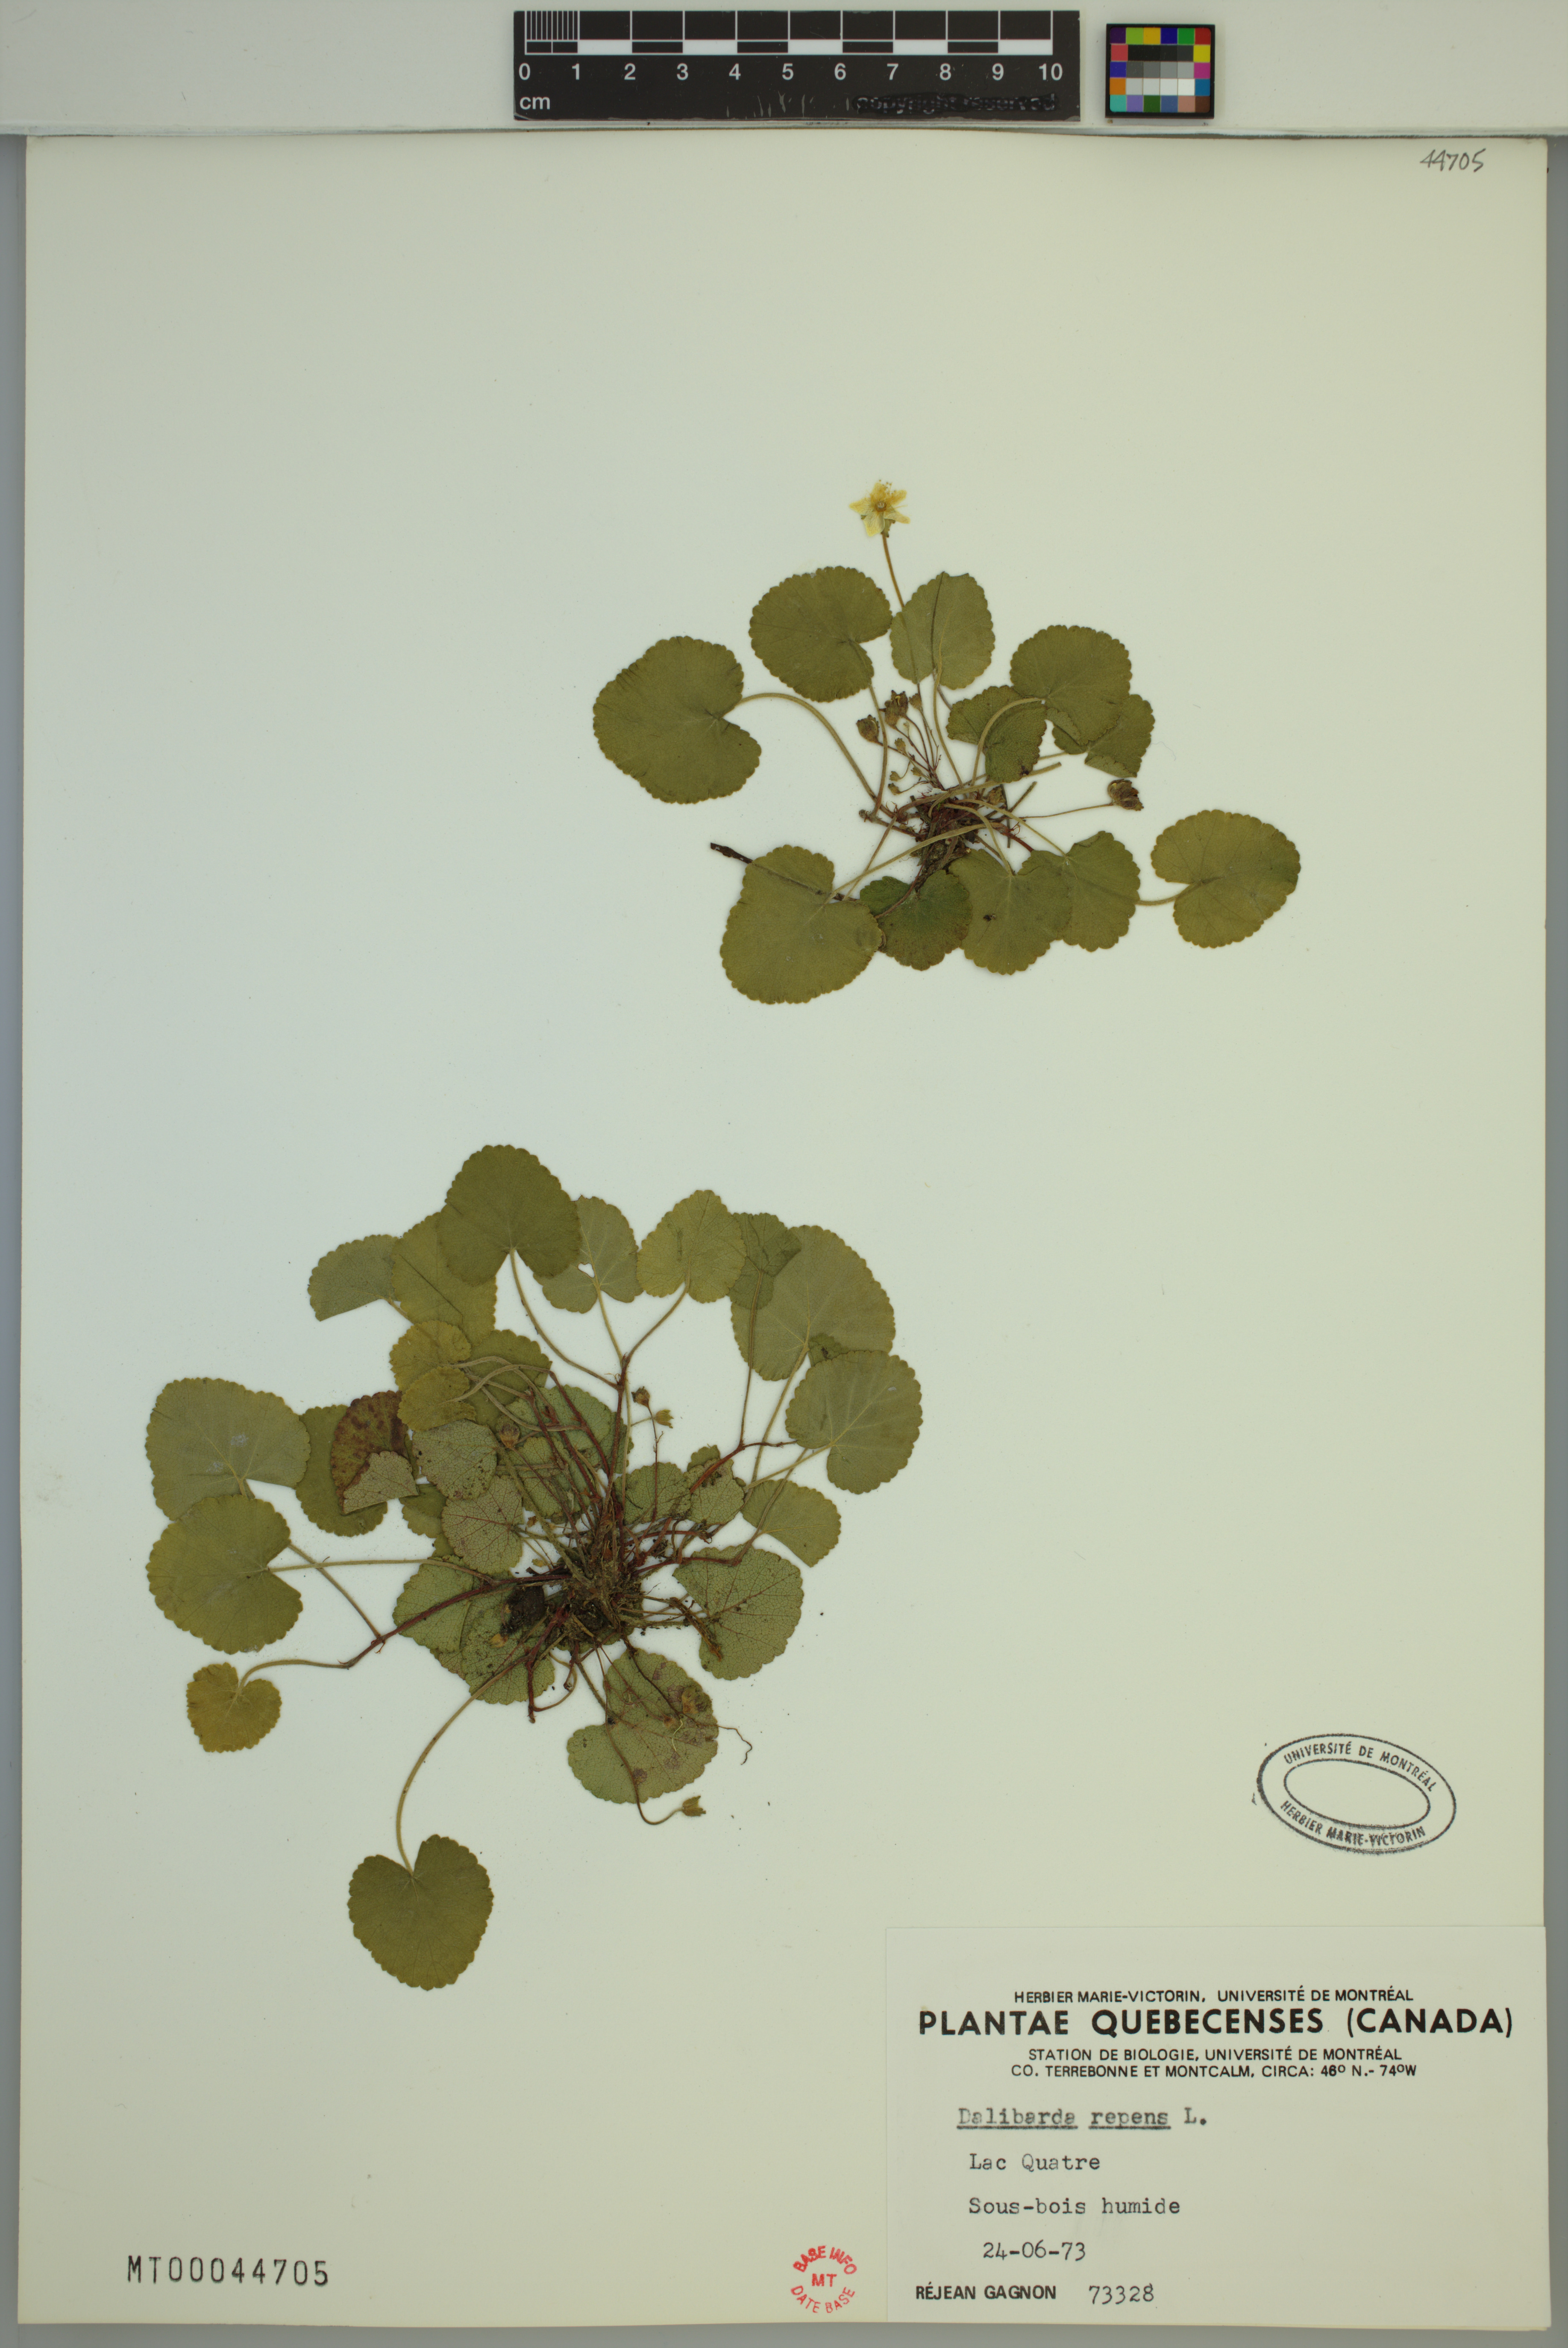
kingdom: Plantae
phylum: Tracheophyta
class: Magnoliopsida
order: Rosales
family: Rosaceae
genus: Dalibarda
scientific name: Dalibarda repens
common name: Dewdrop
